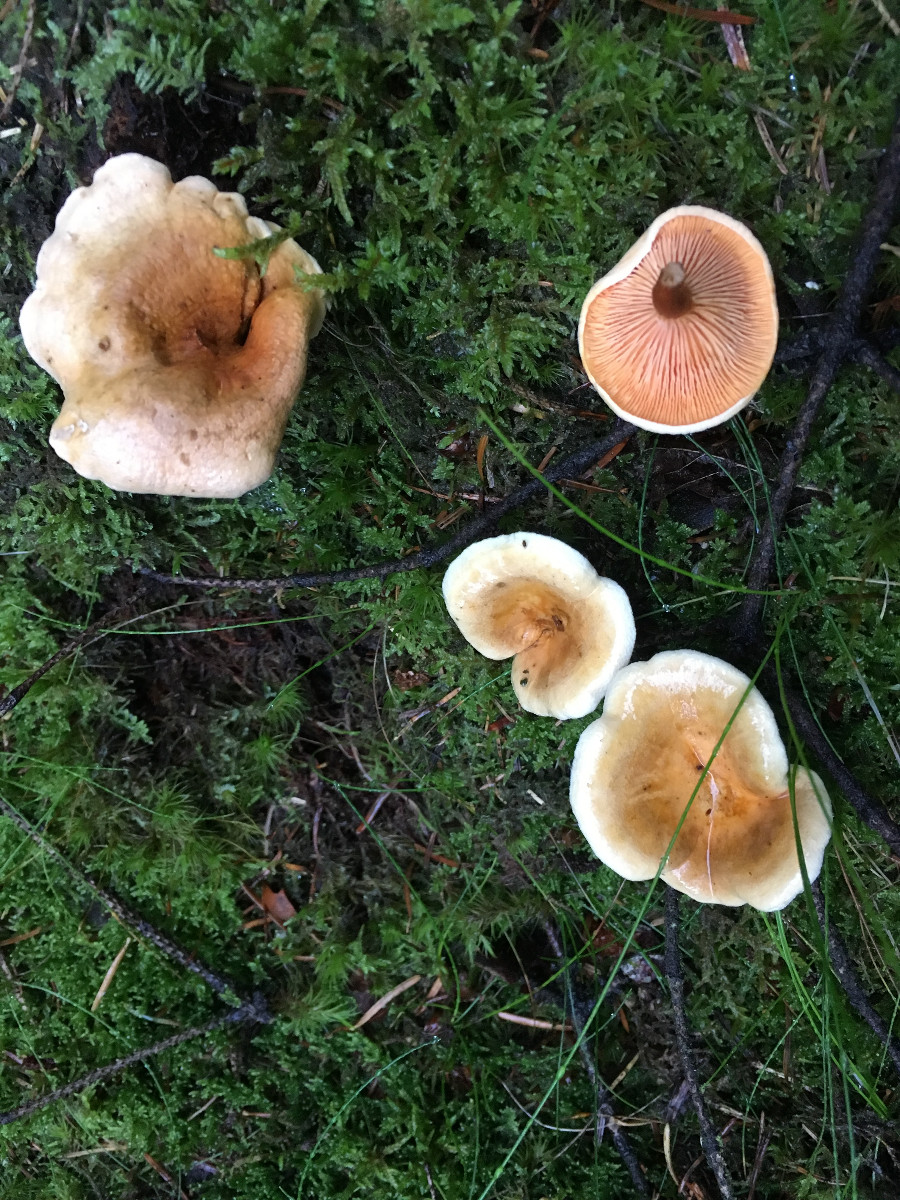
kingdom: Fungi
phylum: Basidiomycota
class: Agaricomycetes
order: Boletales
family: Hygrophoropsidaceae
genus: Hygrophoropsis
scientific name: Hygrophoropsis aurantiaca
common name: almindelig orangekantarel
